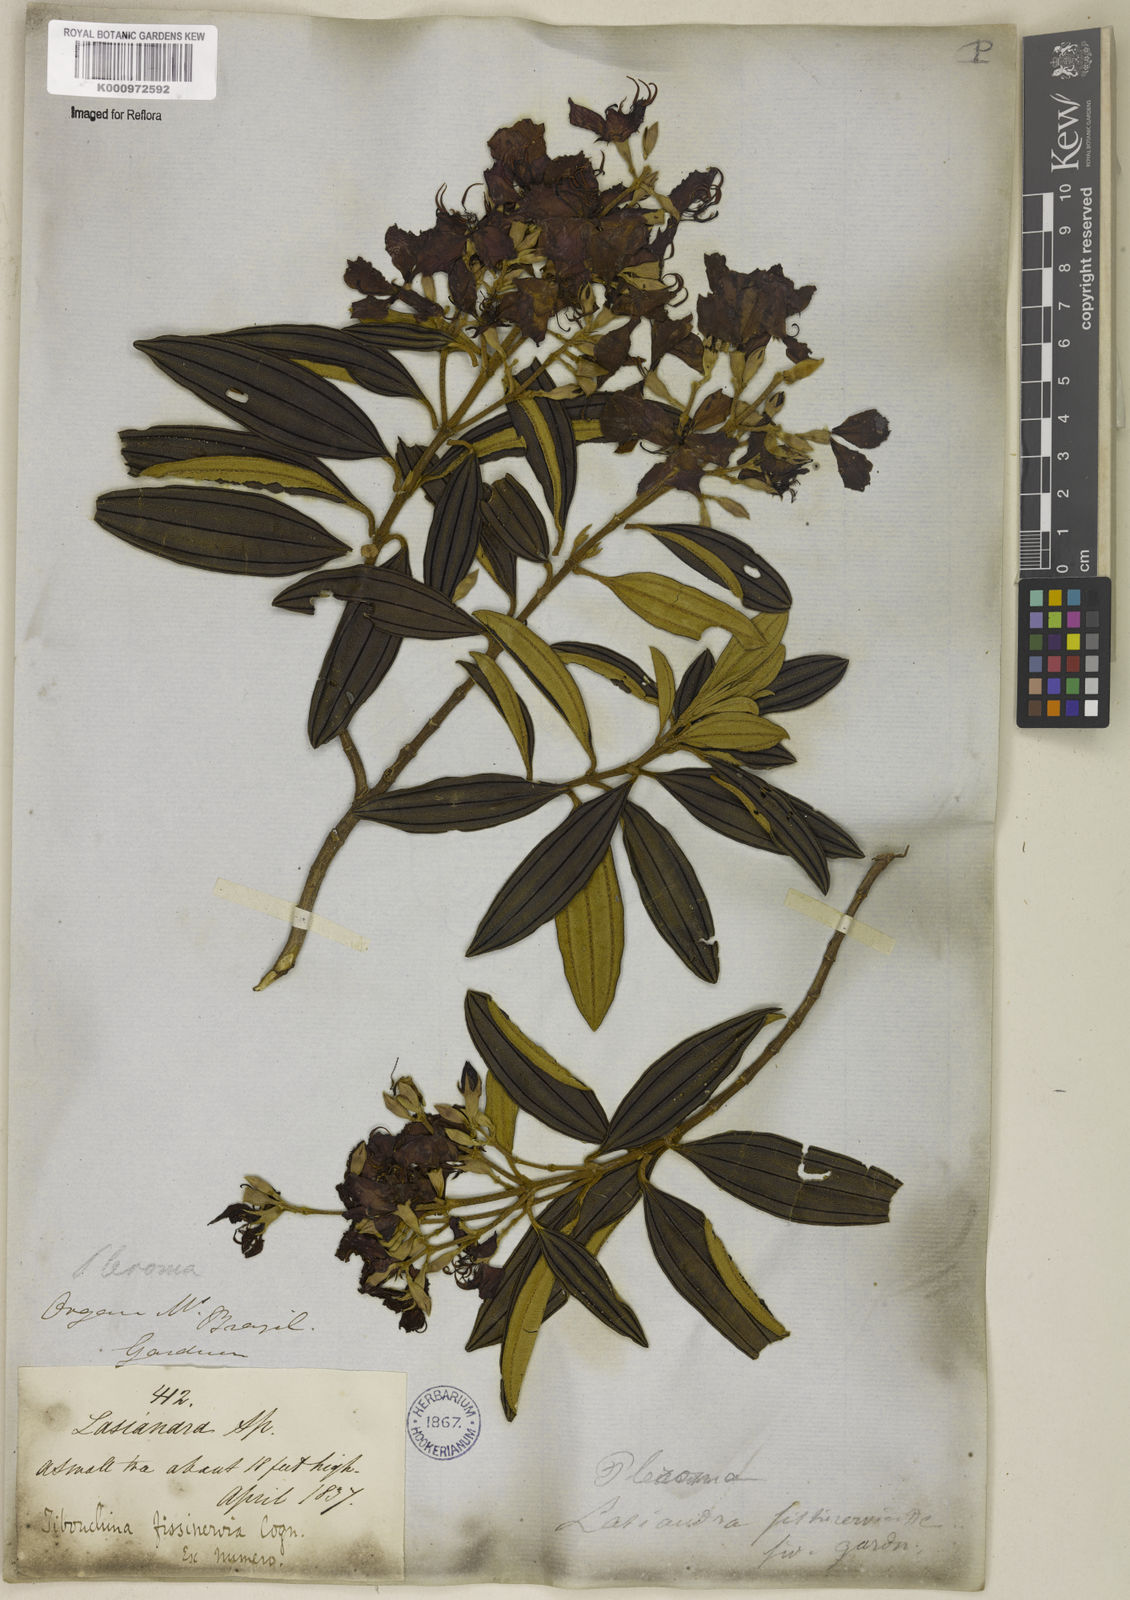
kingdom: Plantae
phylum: Tracheophyta
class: Magnoliopsida
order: Myrtales
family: Melastomataceae
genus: Pleroma
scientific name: Pleroma fissinervium
